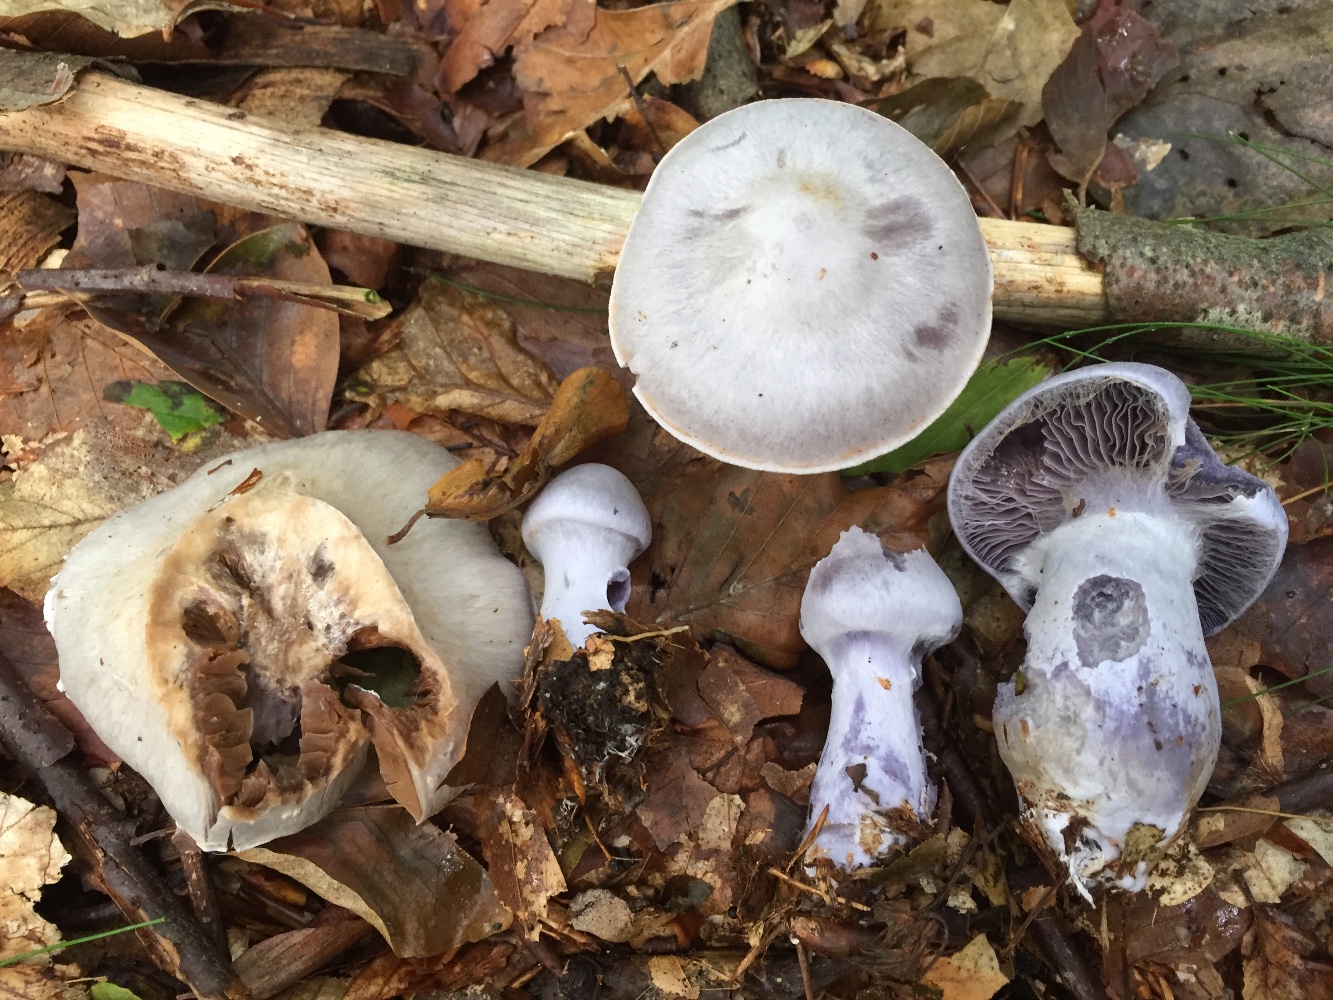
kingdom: Fungi
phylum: Basidiomycota
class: Agaricomycetes
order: Agaricales
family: Cortinariaceae
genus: Cortinarius
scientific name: Cortinarius alboviolaceus
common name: lysviolet slørhat
